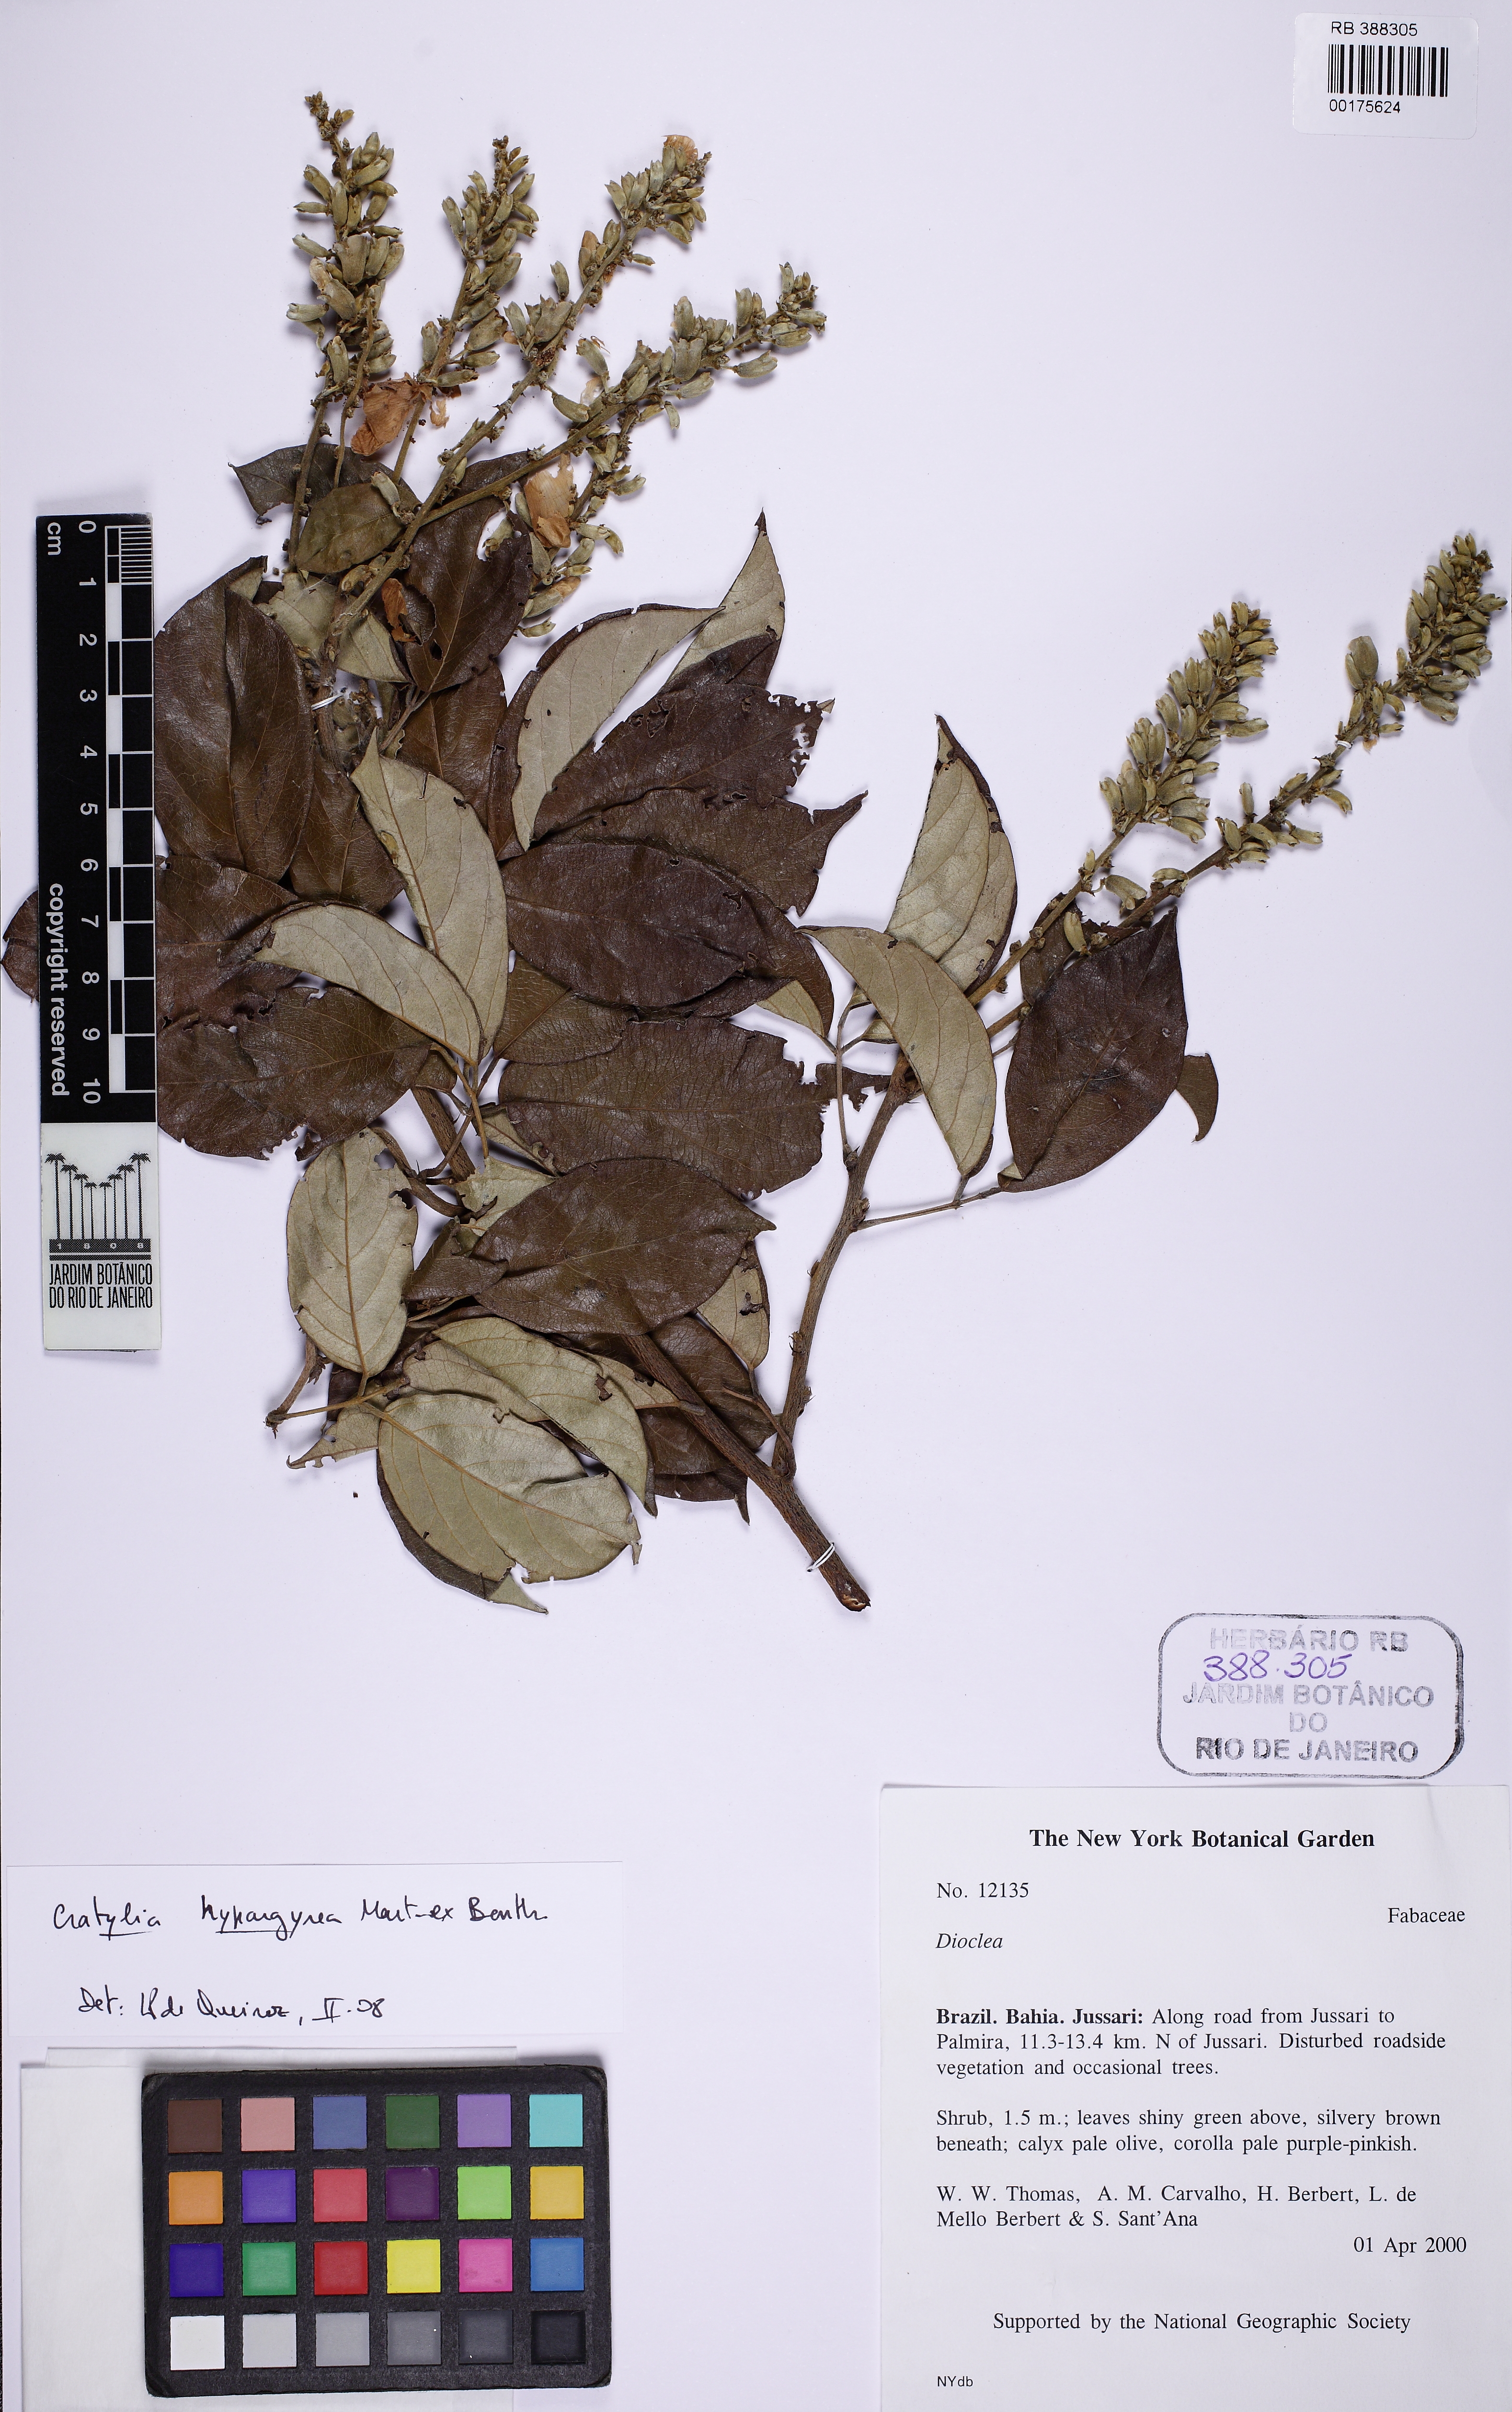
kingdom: Plantae
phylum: Tracheophyta
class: Magnoliopsida
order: Fabales
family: Fabaceae
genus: Cratylia
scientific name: Cratylia hypargyrea
